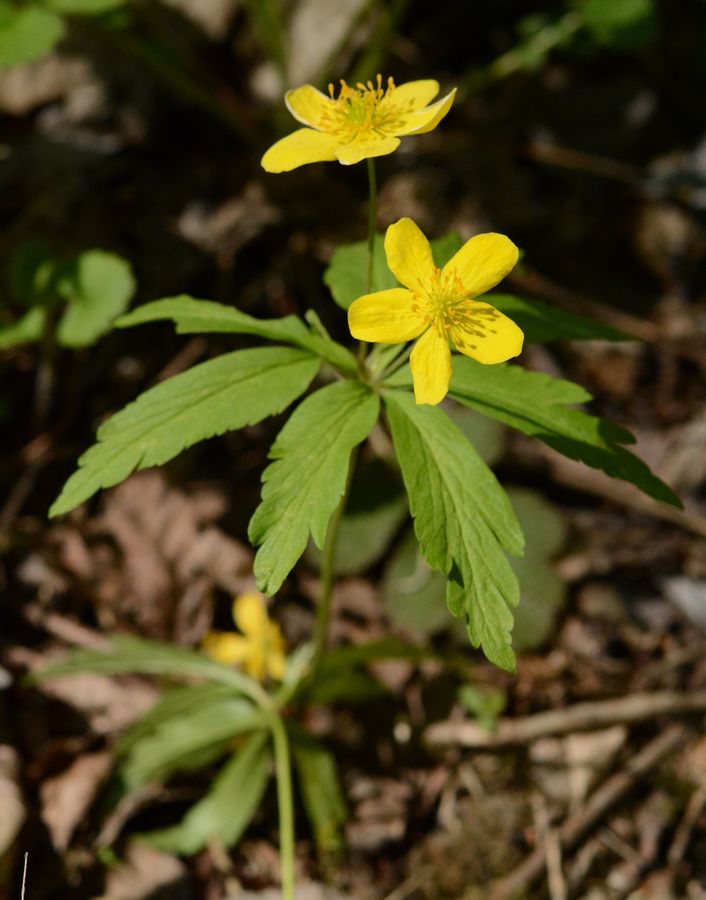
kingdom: Plantae
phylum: Tracheophyta
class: Magnoliopsida
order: Ranunculales
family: Ranunculaceae
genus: Anemone
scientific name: Anemone ranunculoides
